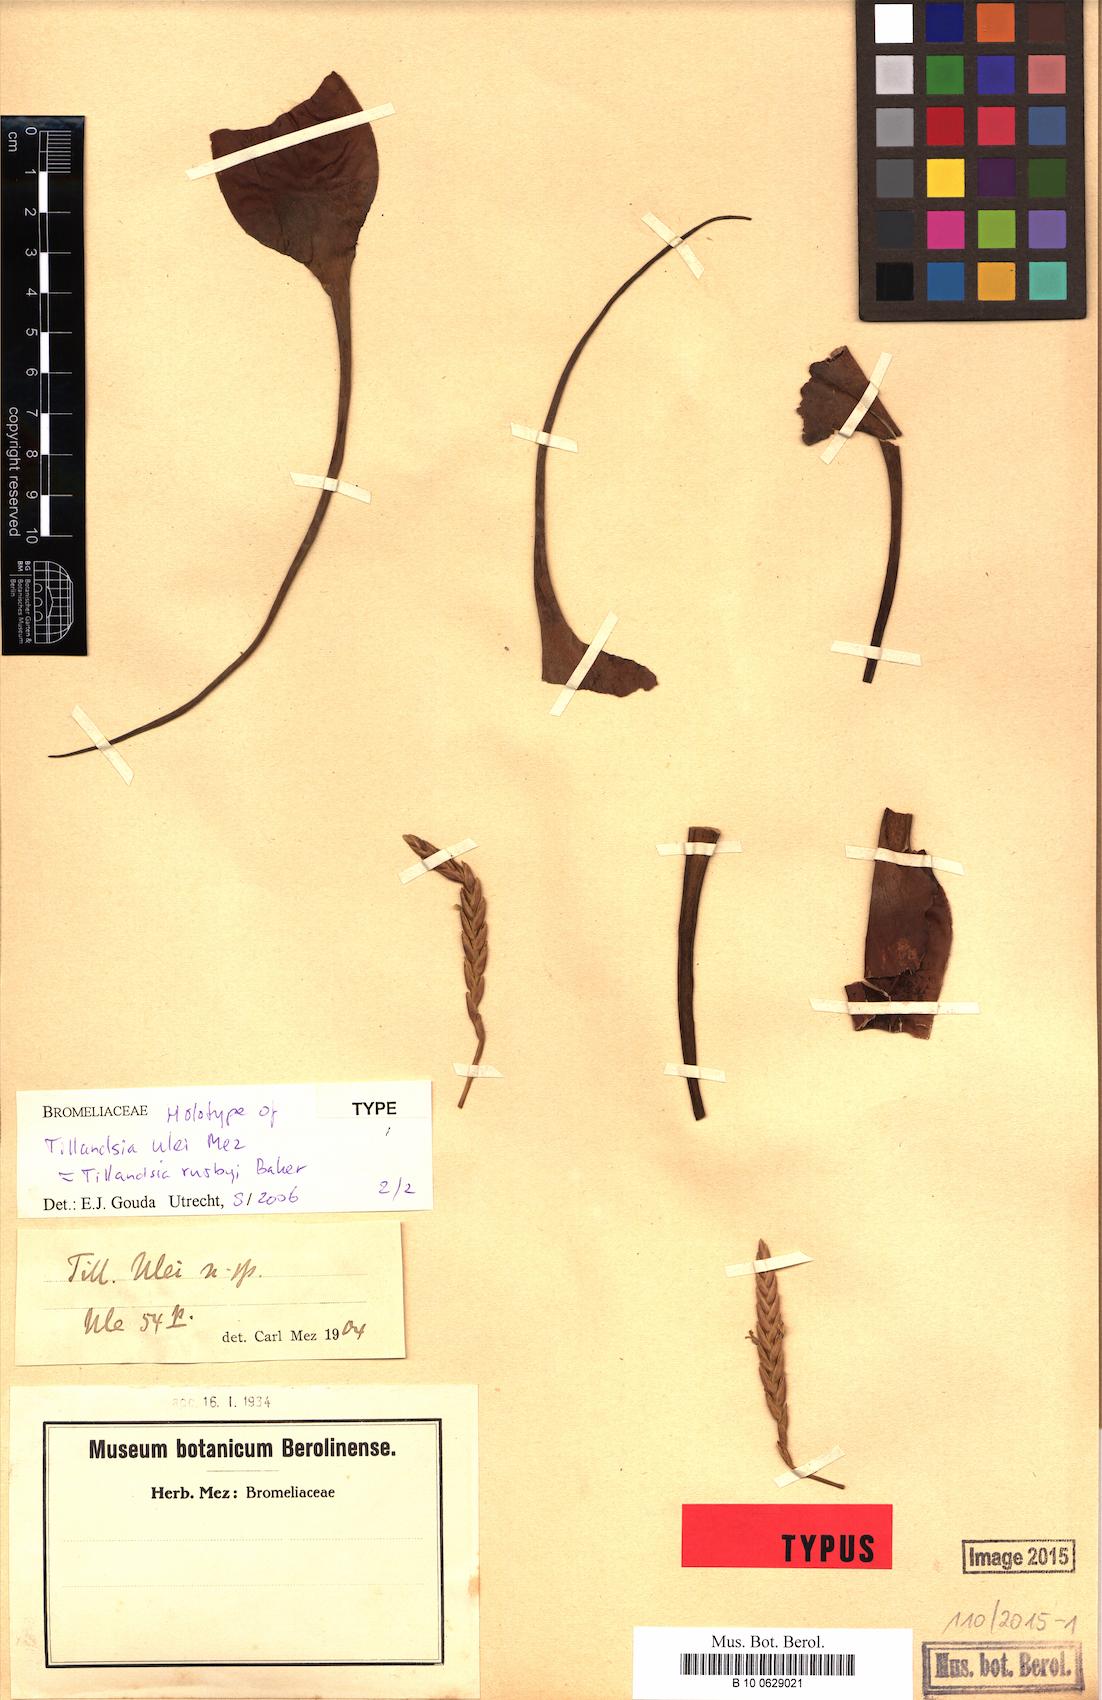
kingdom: Plantae
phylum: Tracheophyta
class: Liliopsida
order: Poales
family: Bromeliaceae
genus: Tillandsia
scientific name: Tillandsia rusbyi
